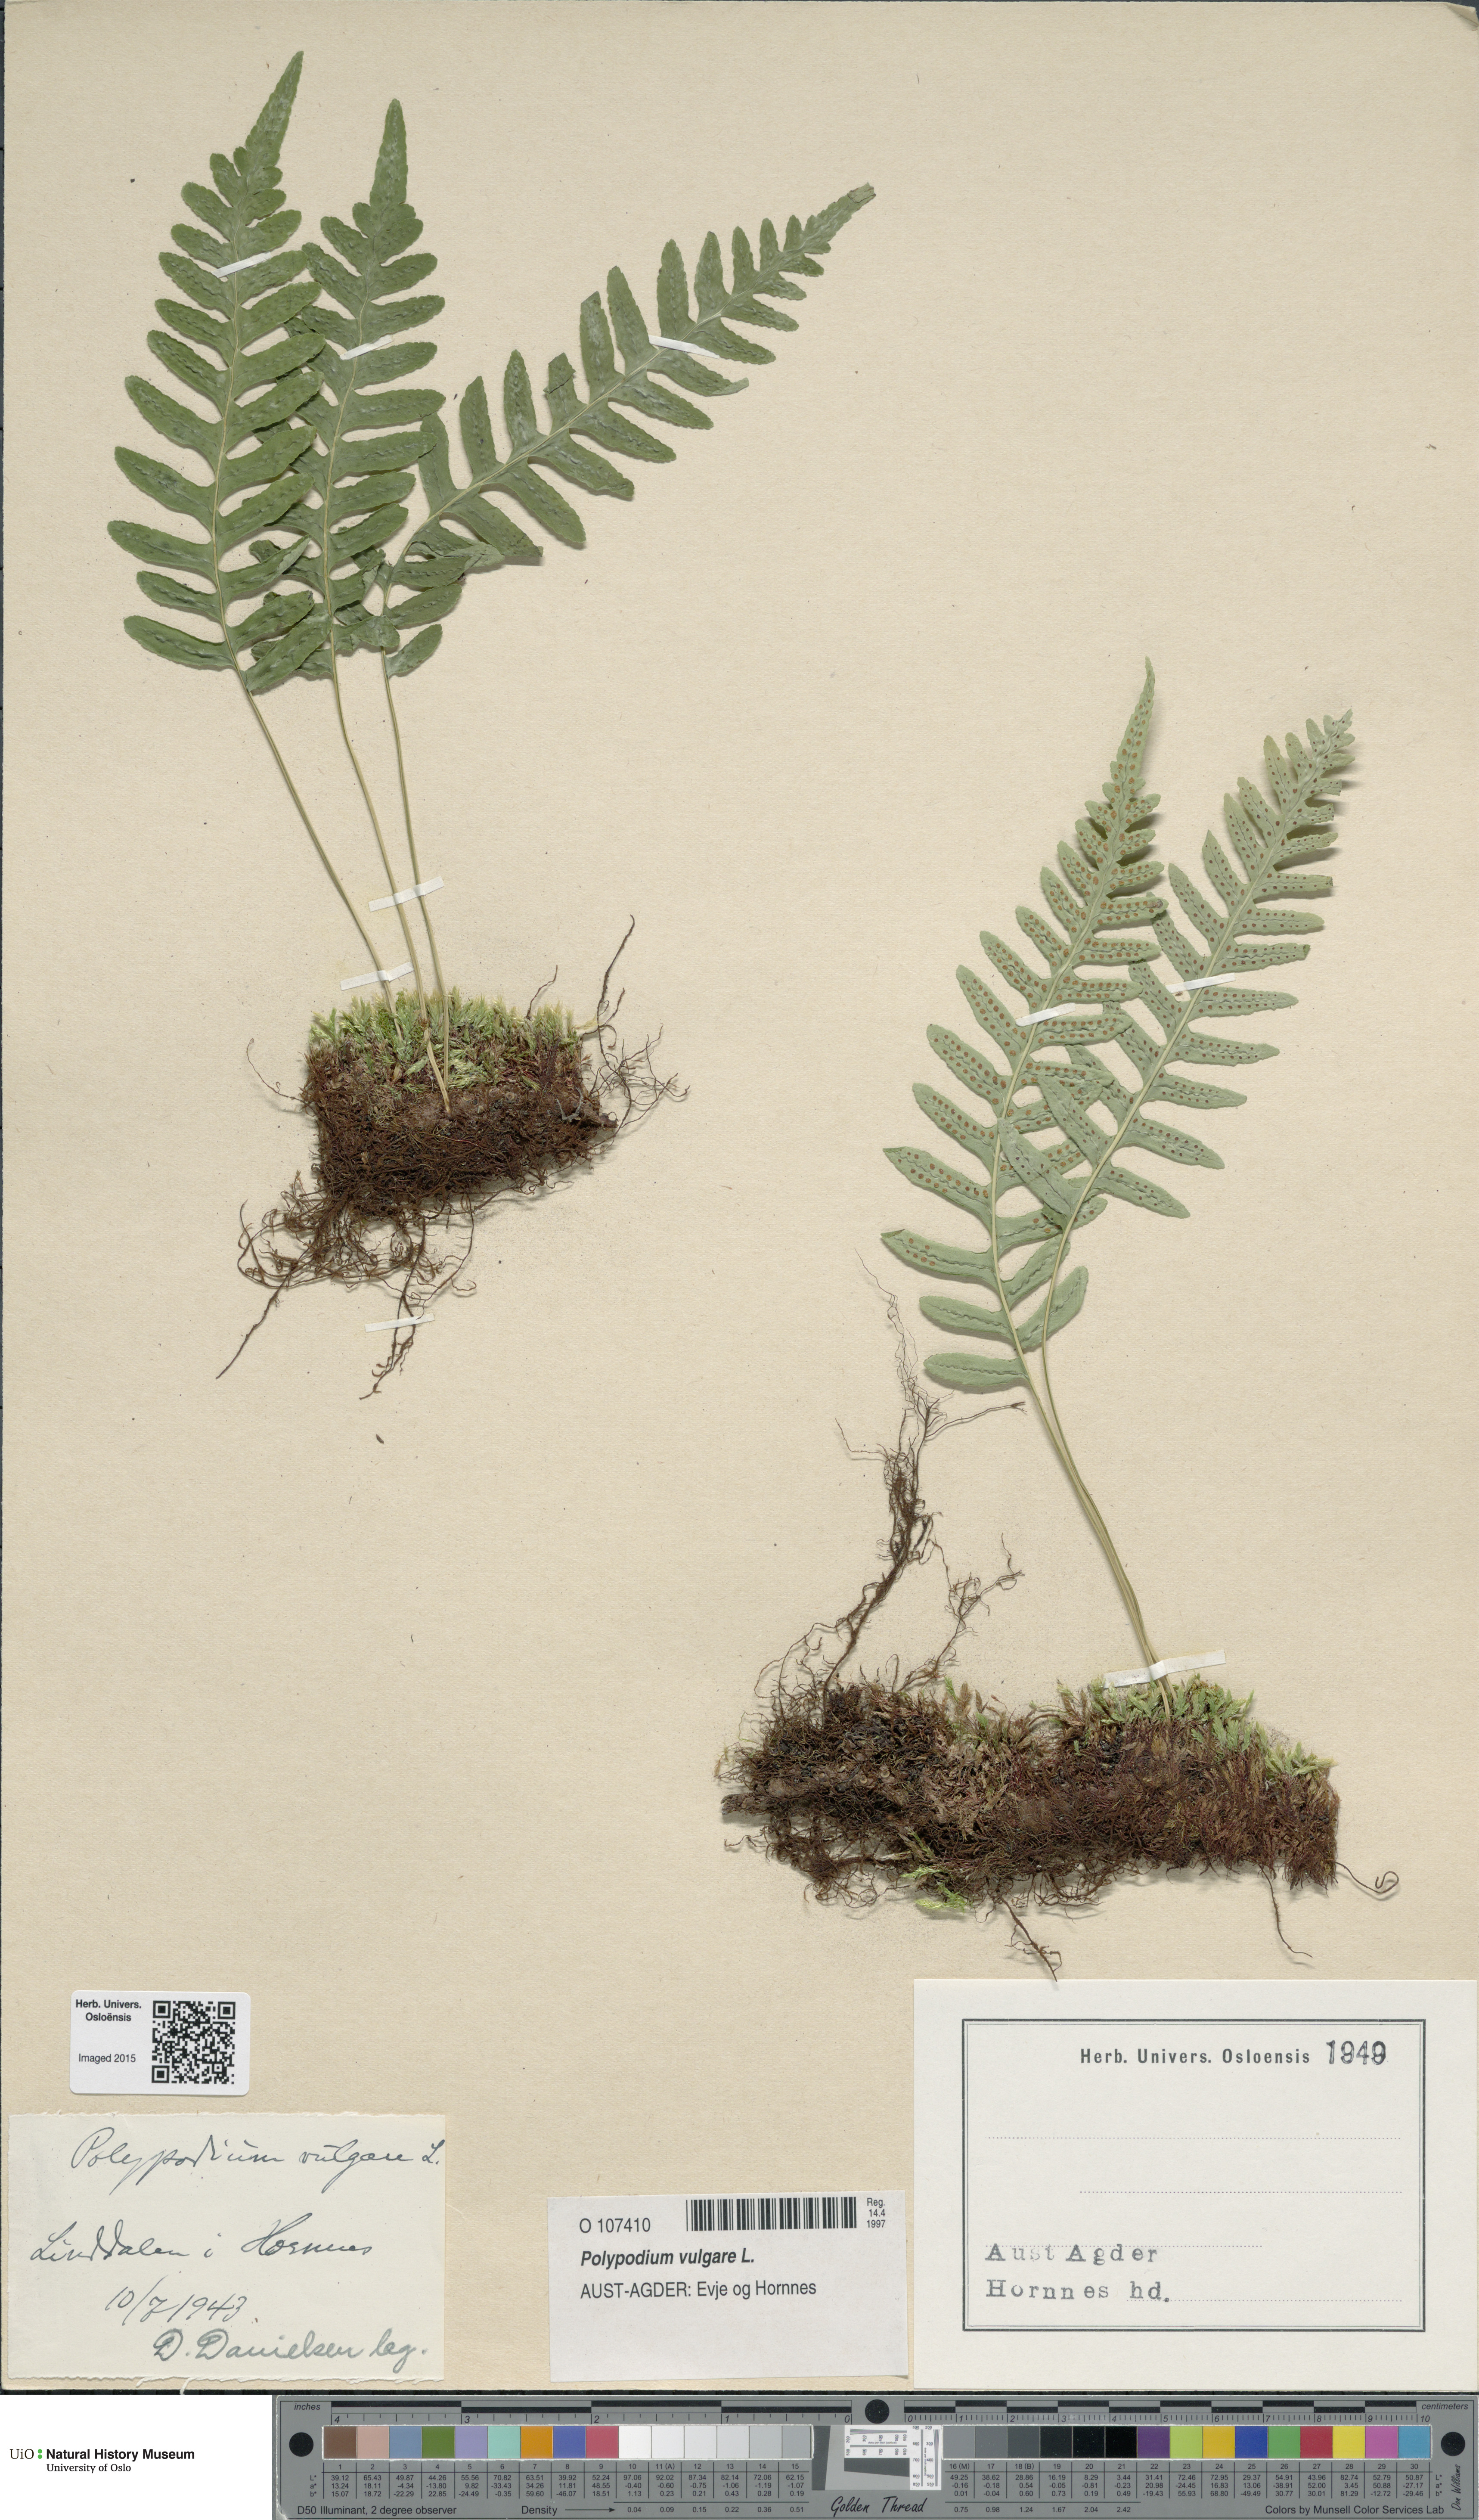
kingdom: Plantae
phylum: Tracheophyta
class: Polypodiopsida
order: Polypodiales
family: Polypodiaceae
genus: Polypodium
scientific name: Polypodium vulgare
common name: Common polypody
